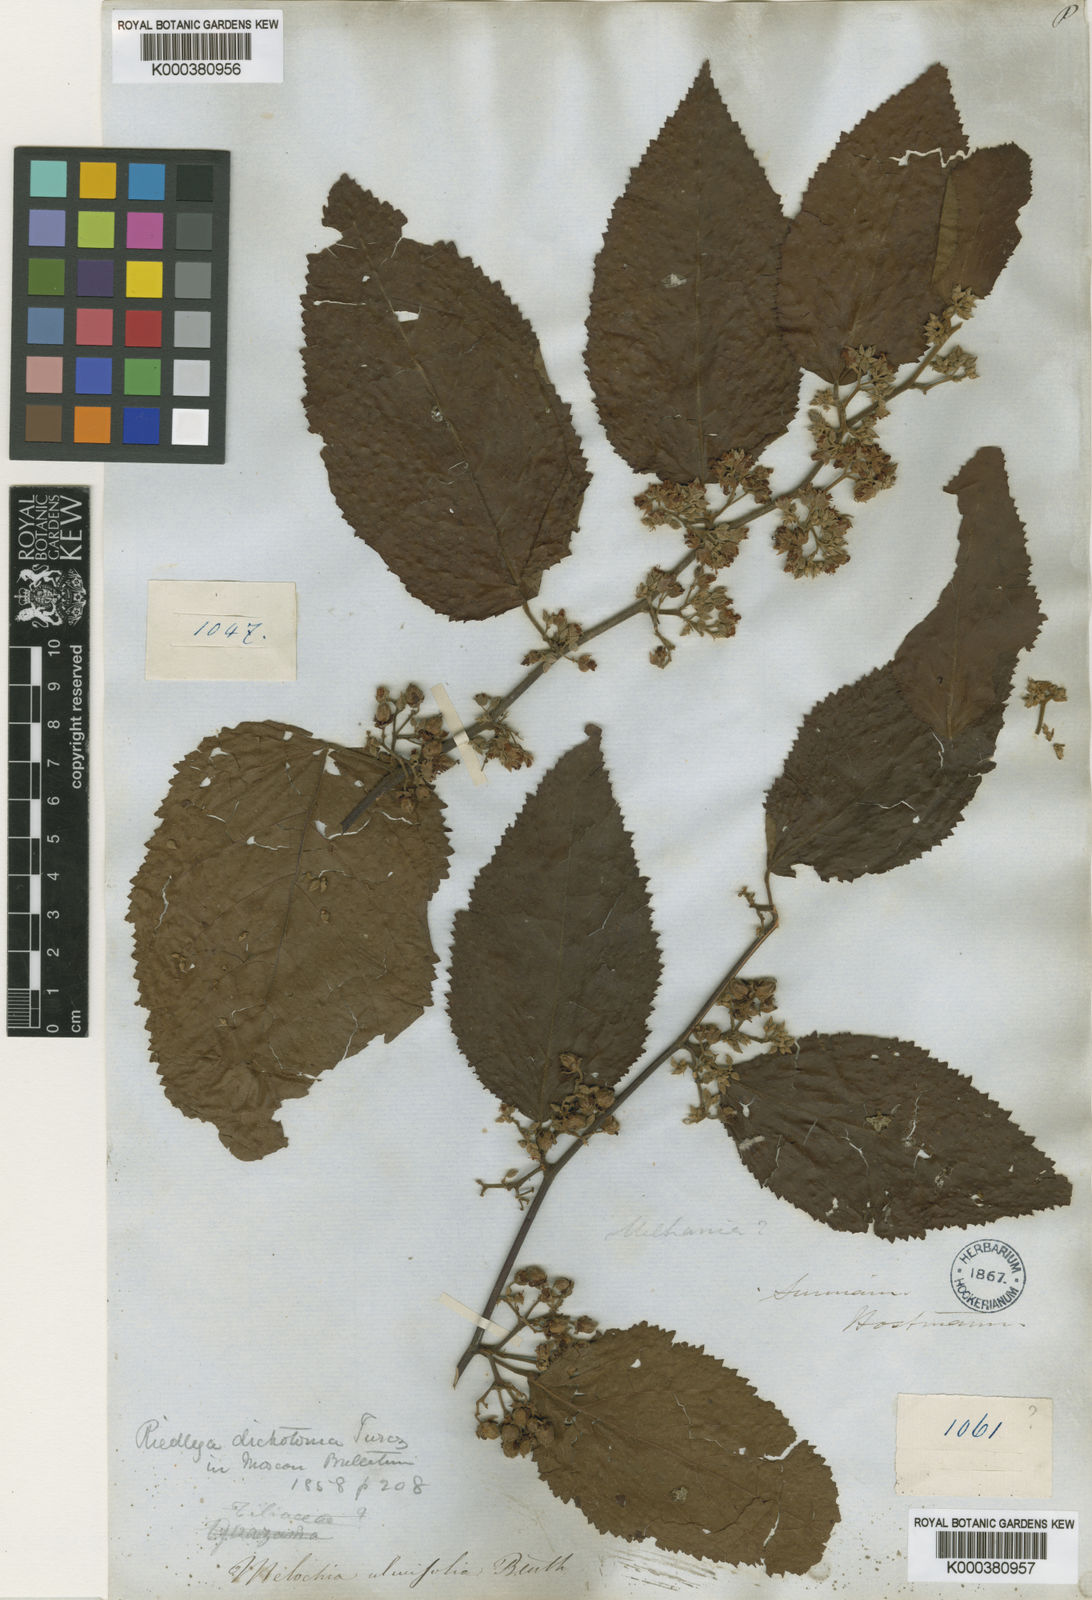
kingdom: Plantae
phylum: Tracheophyta
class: Magnoliopsida
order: Malvales
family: Malvaceae
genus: Melochia
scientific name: Melochia ulmifolia
